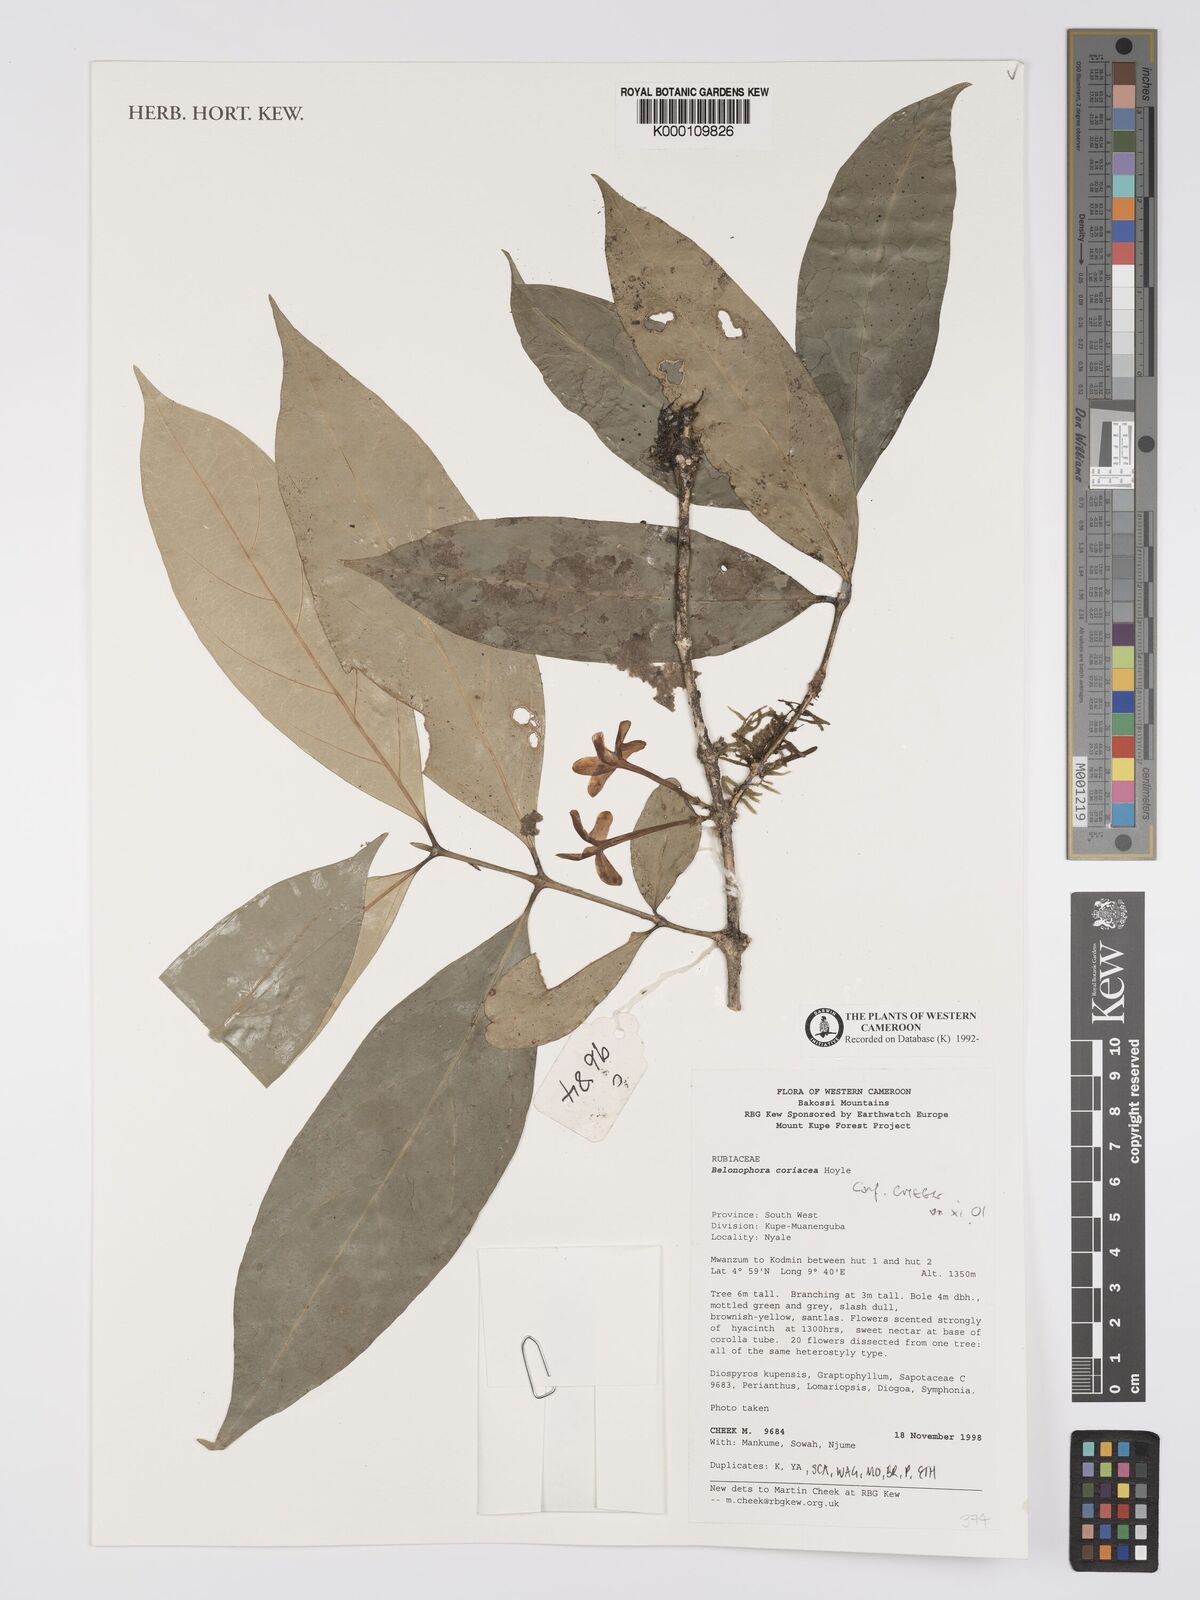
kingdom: Plantae
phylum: Tracheophyta
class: Magnoliopsida
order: Gentianales
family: Rubiaceae
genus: Belonophora
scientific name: Belonophora coriacea
